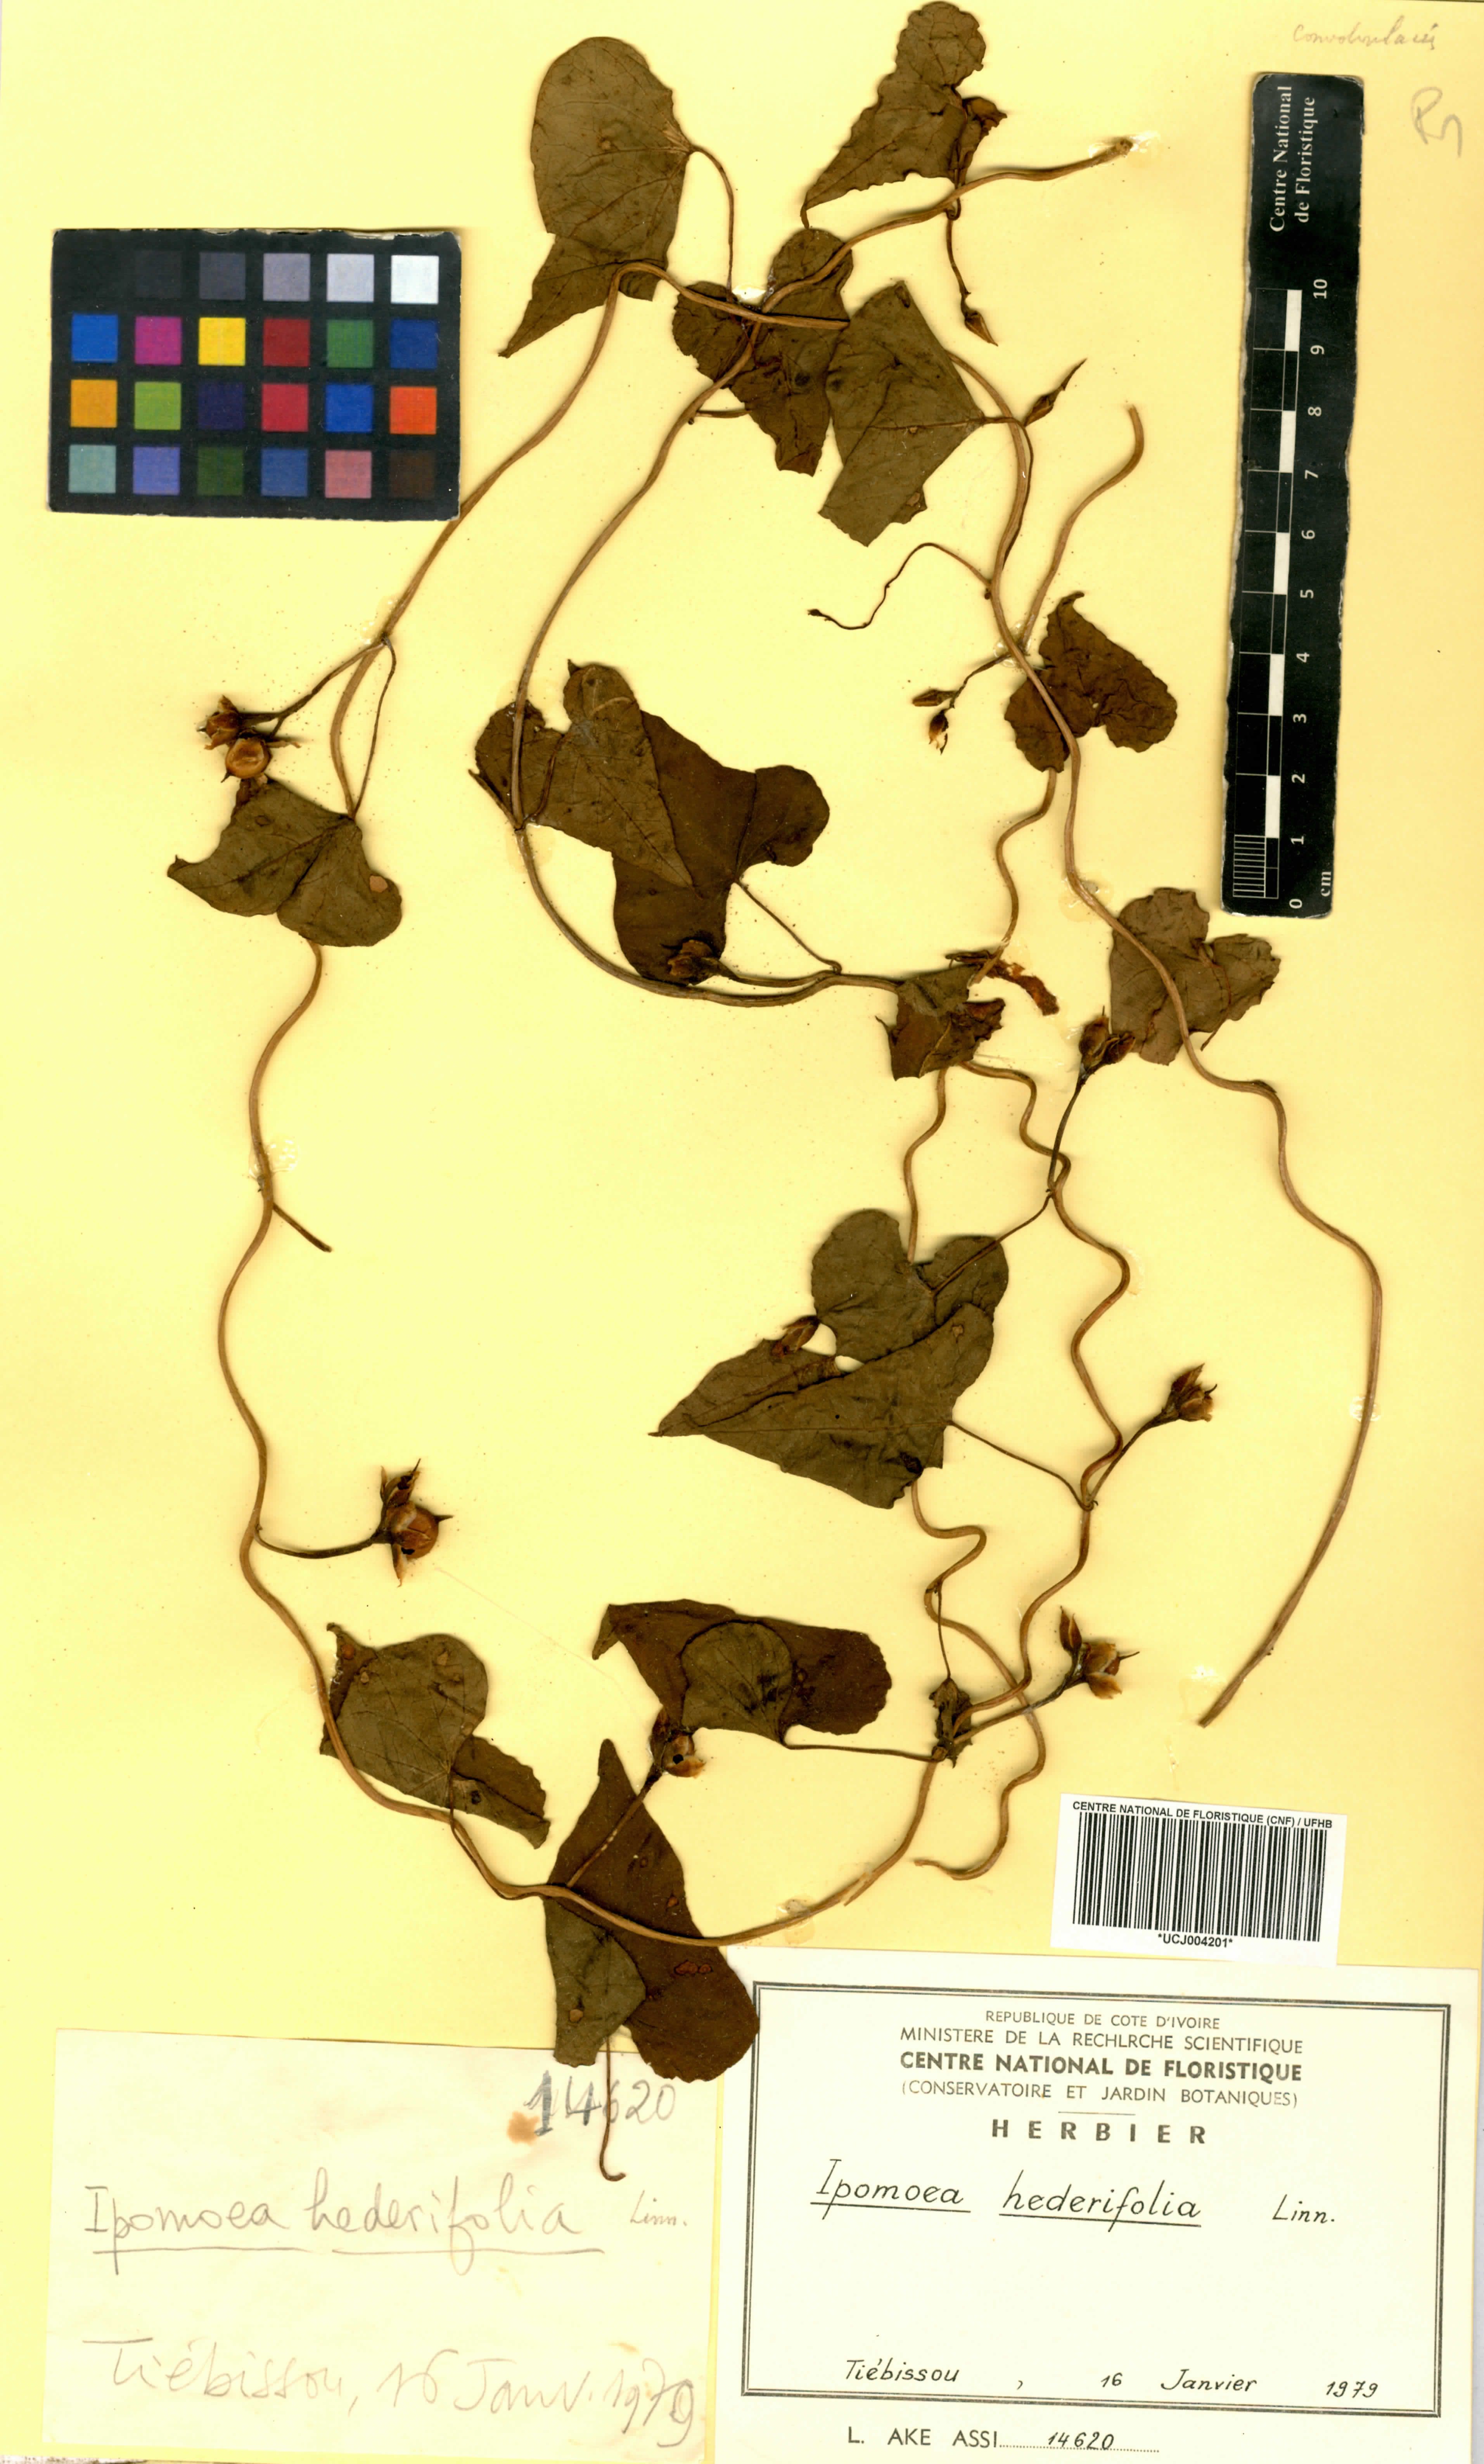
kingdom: Plantae
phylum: Tracheophyta
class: Magnoliopsida
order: Solanales
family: Convolvulaceae
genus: Ipomoea
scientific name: Ipomoea hederifolia
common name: Ivy-leaf morning-glory
